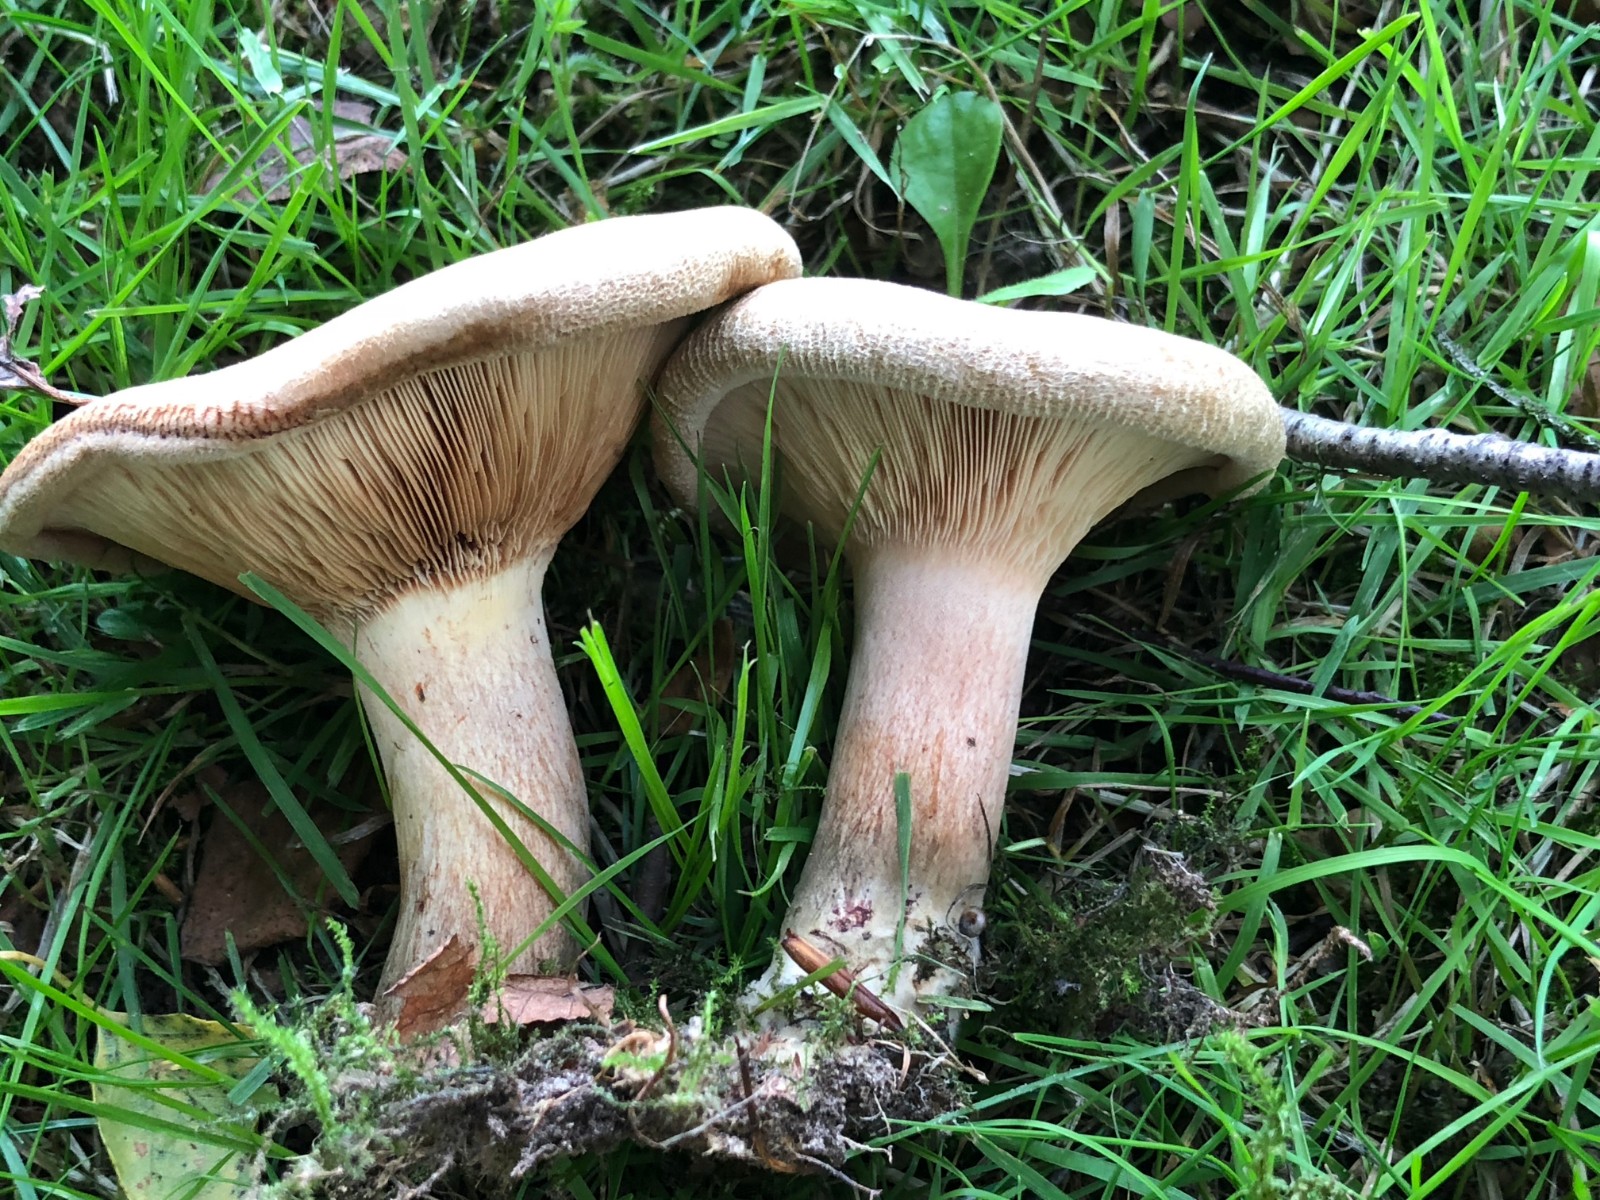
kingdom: Fungi
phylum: Basidiomycota
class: Agaricomycetes
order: Boletales
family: Paxillaceae
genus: Paxillus
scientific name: Paxillus
